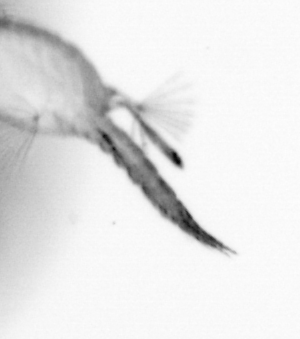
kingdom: Animalia
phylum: Arthropoda
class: Copepoda
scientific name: Copepoda
